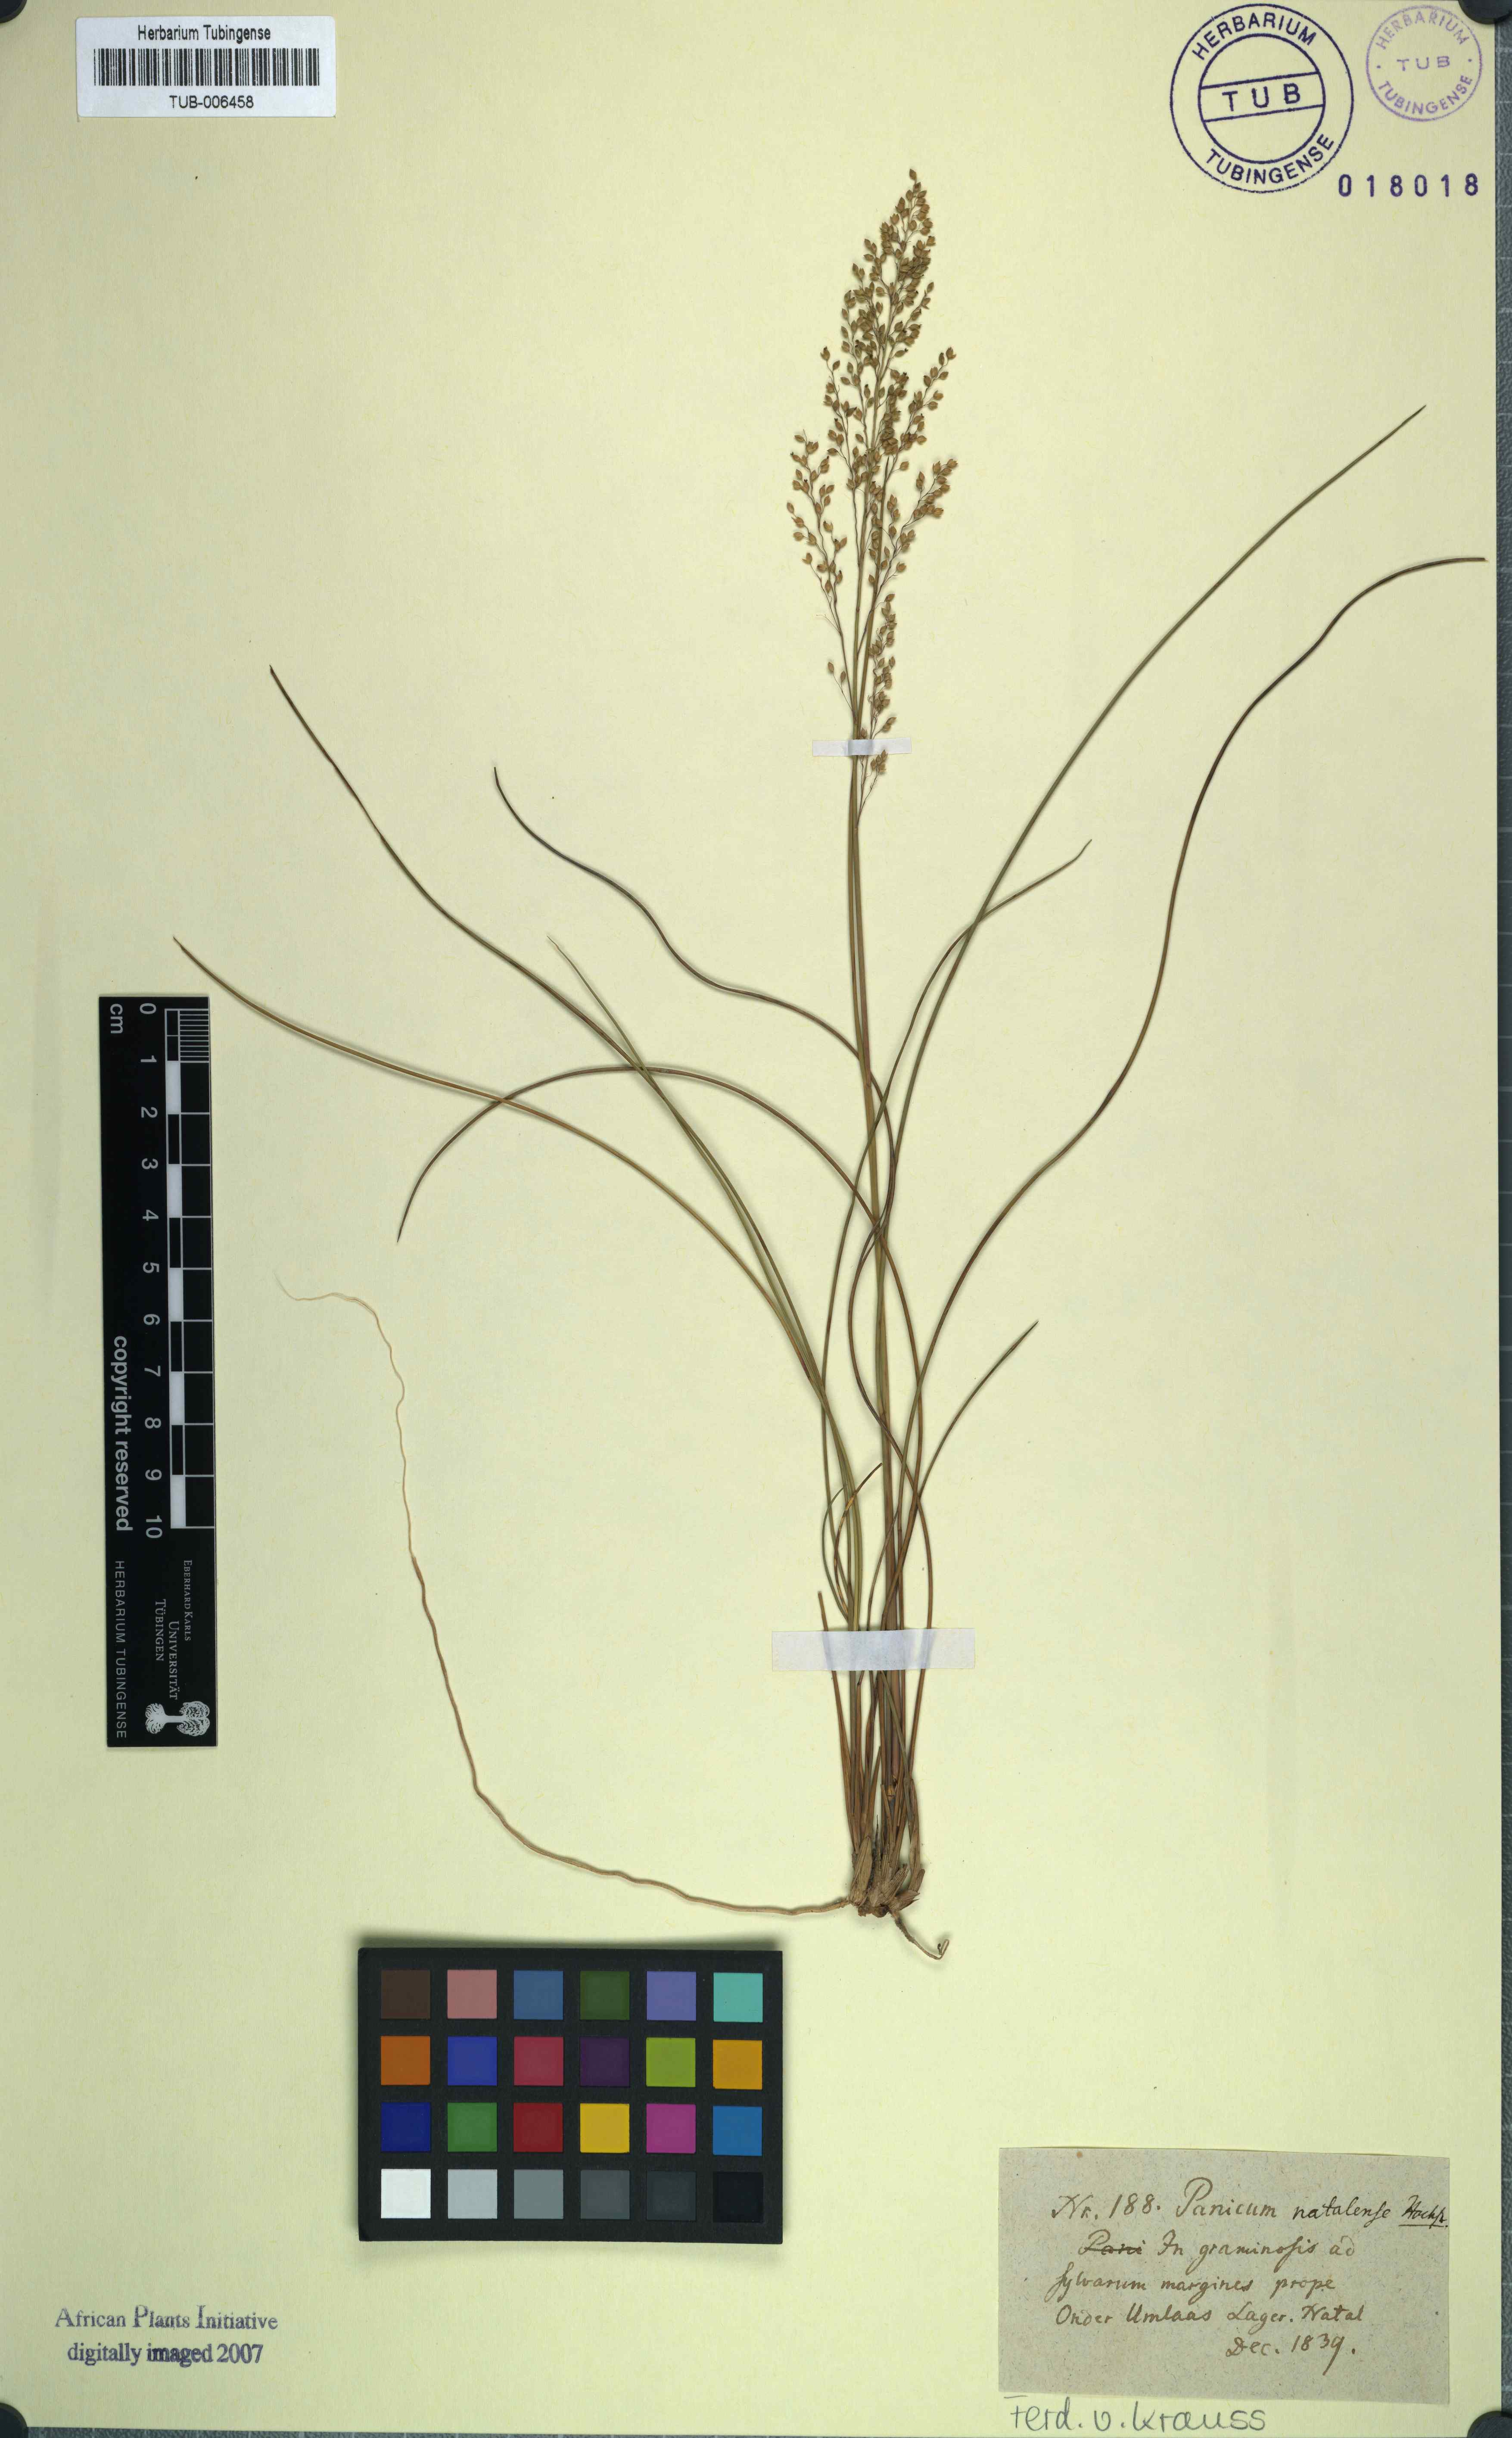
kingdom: Plantae
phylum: Tracheophyta
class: Liliopsida
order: Poales
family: Poaceae
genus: Trichanthecium
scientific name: Trichanthecium natalense
